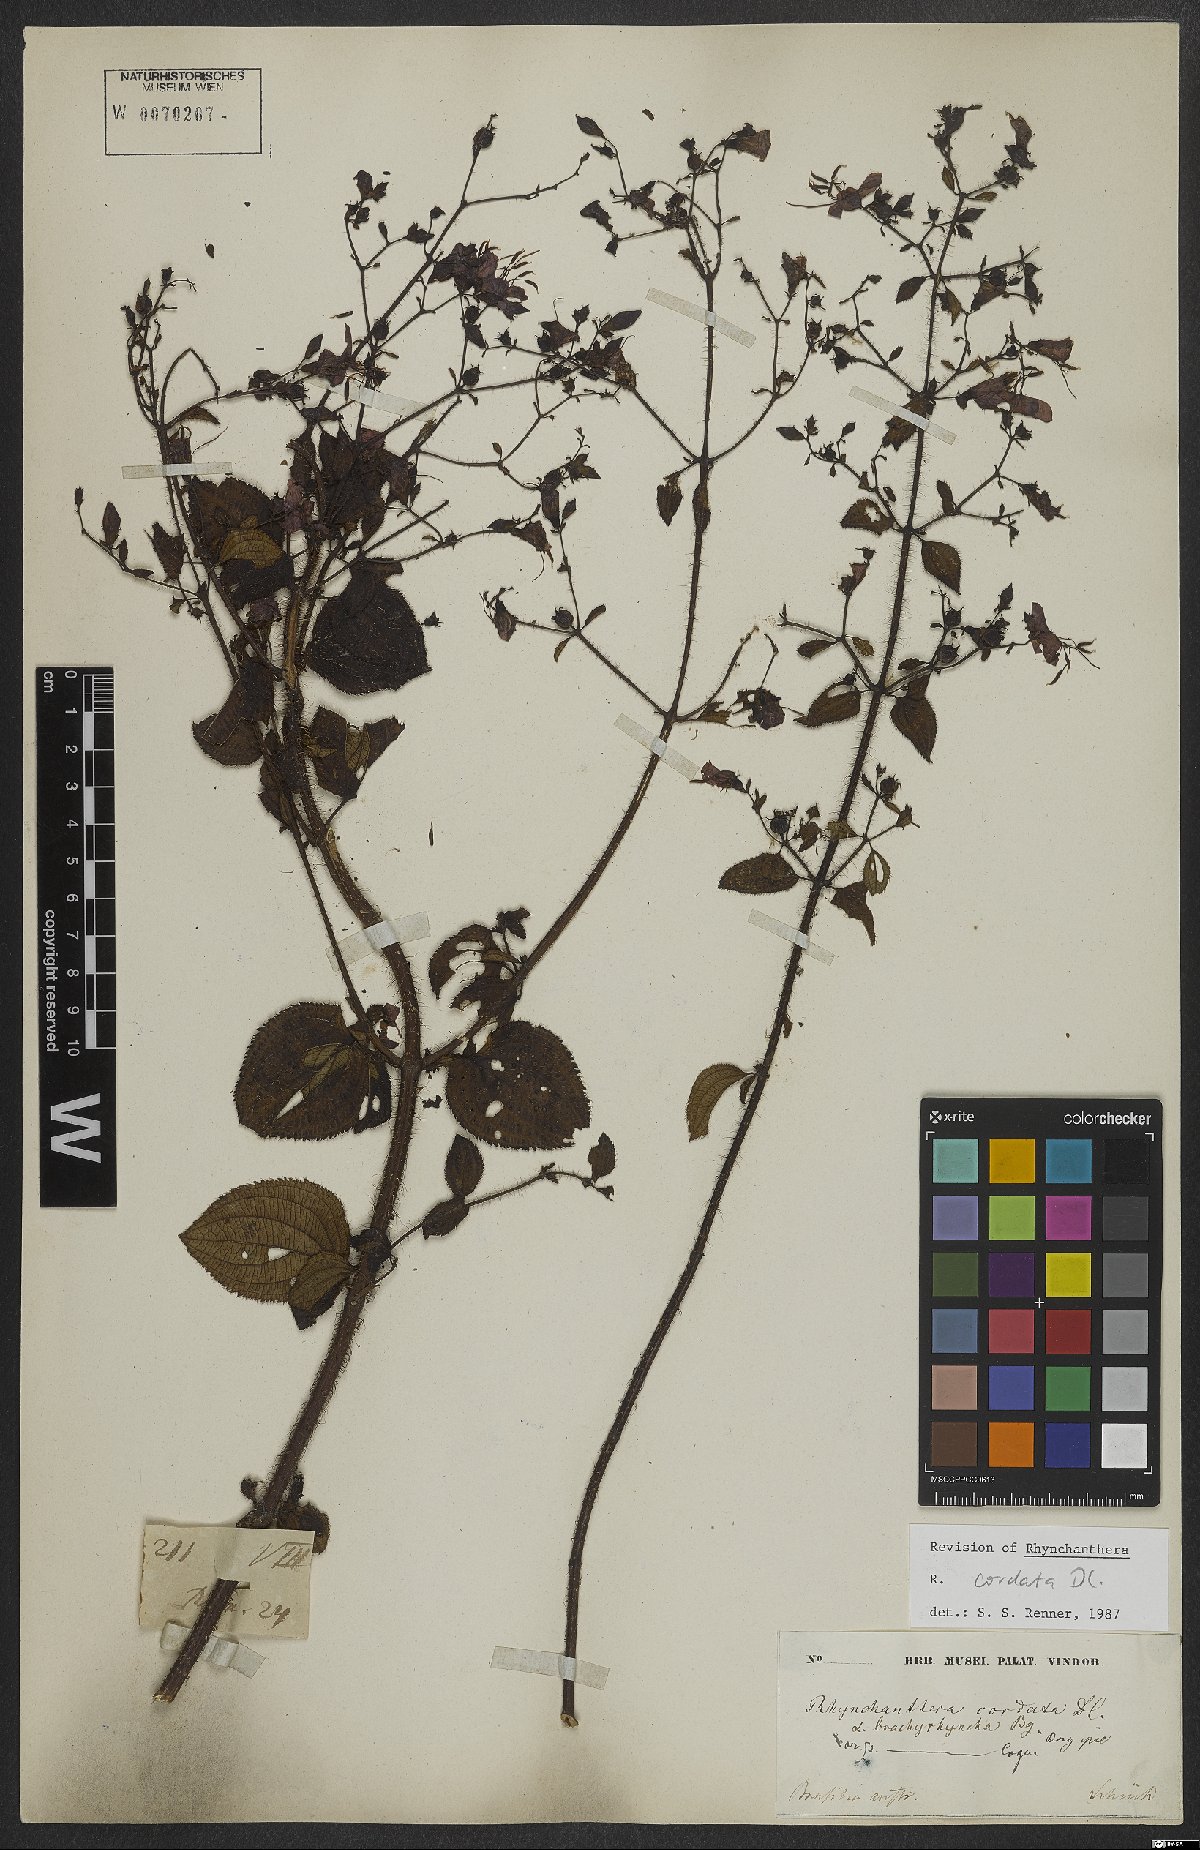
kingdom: Plantae
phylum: Tracheophyta
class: Magnoliopsida
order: Myrtales
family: Melastomataceae
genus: Rhynchanthera
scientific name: Rhynchanthera cordata
